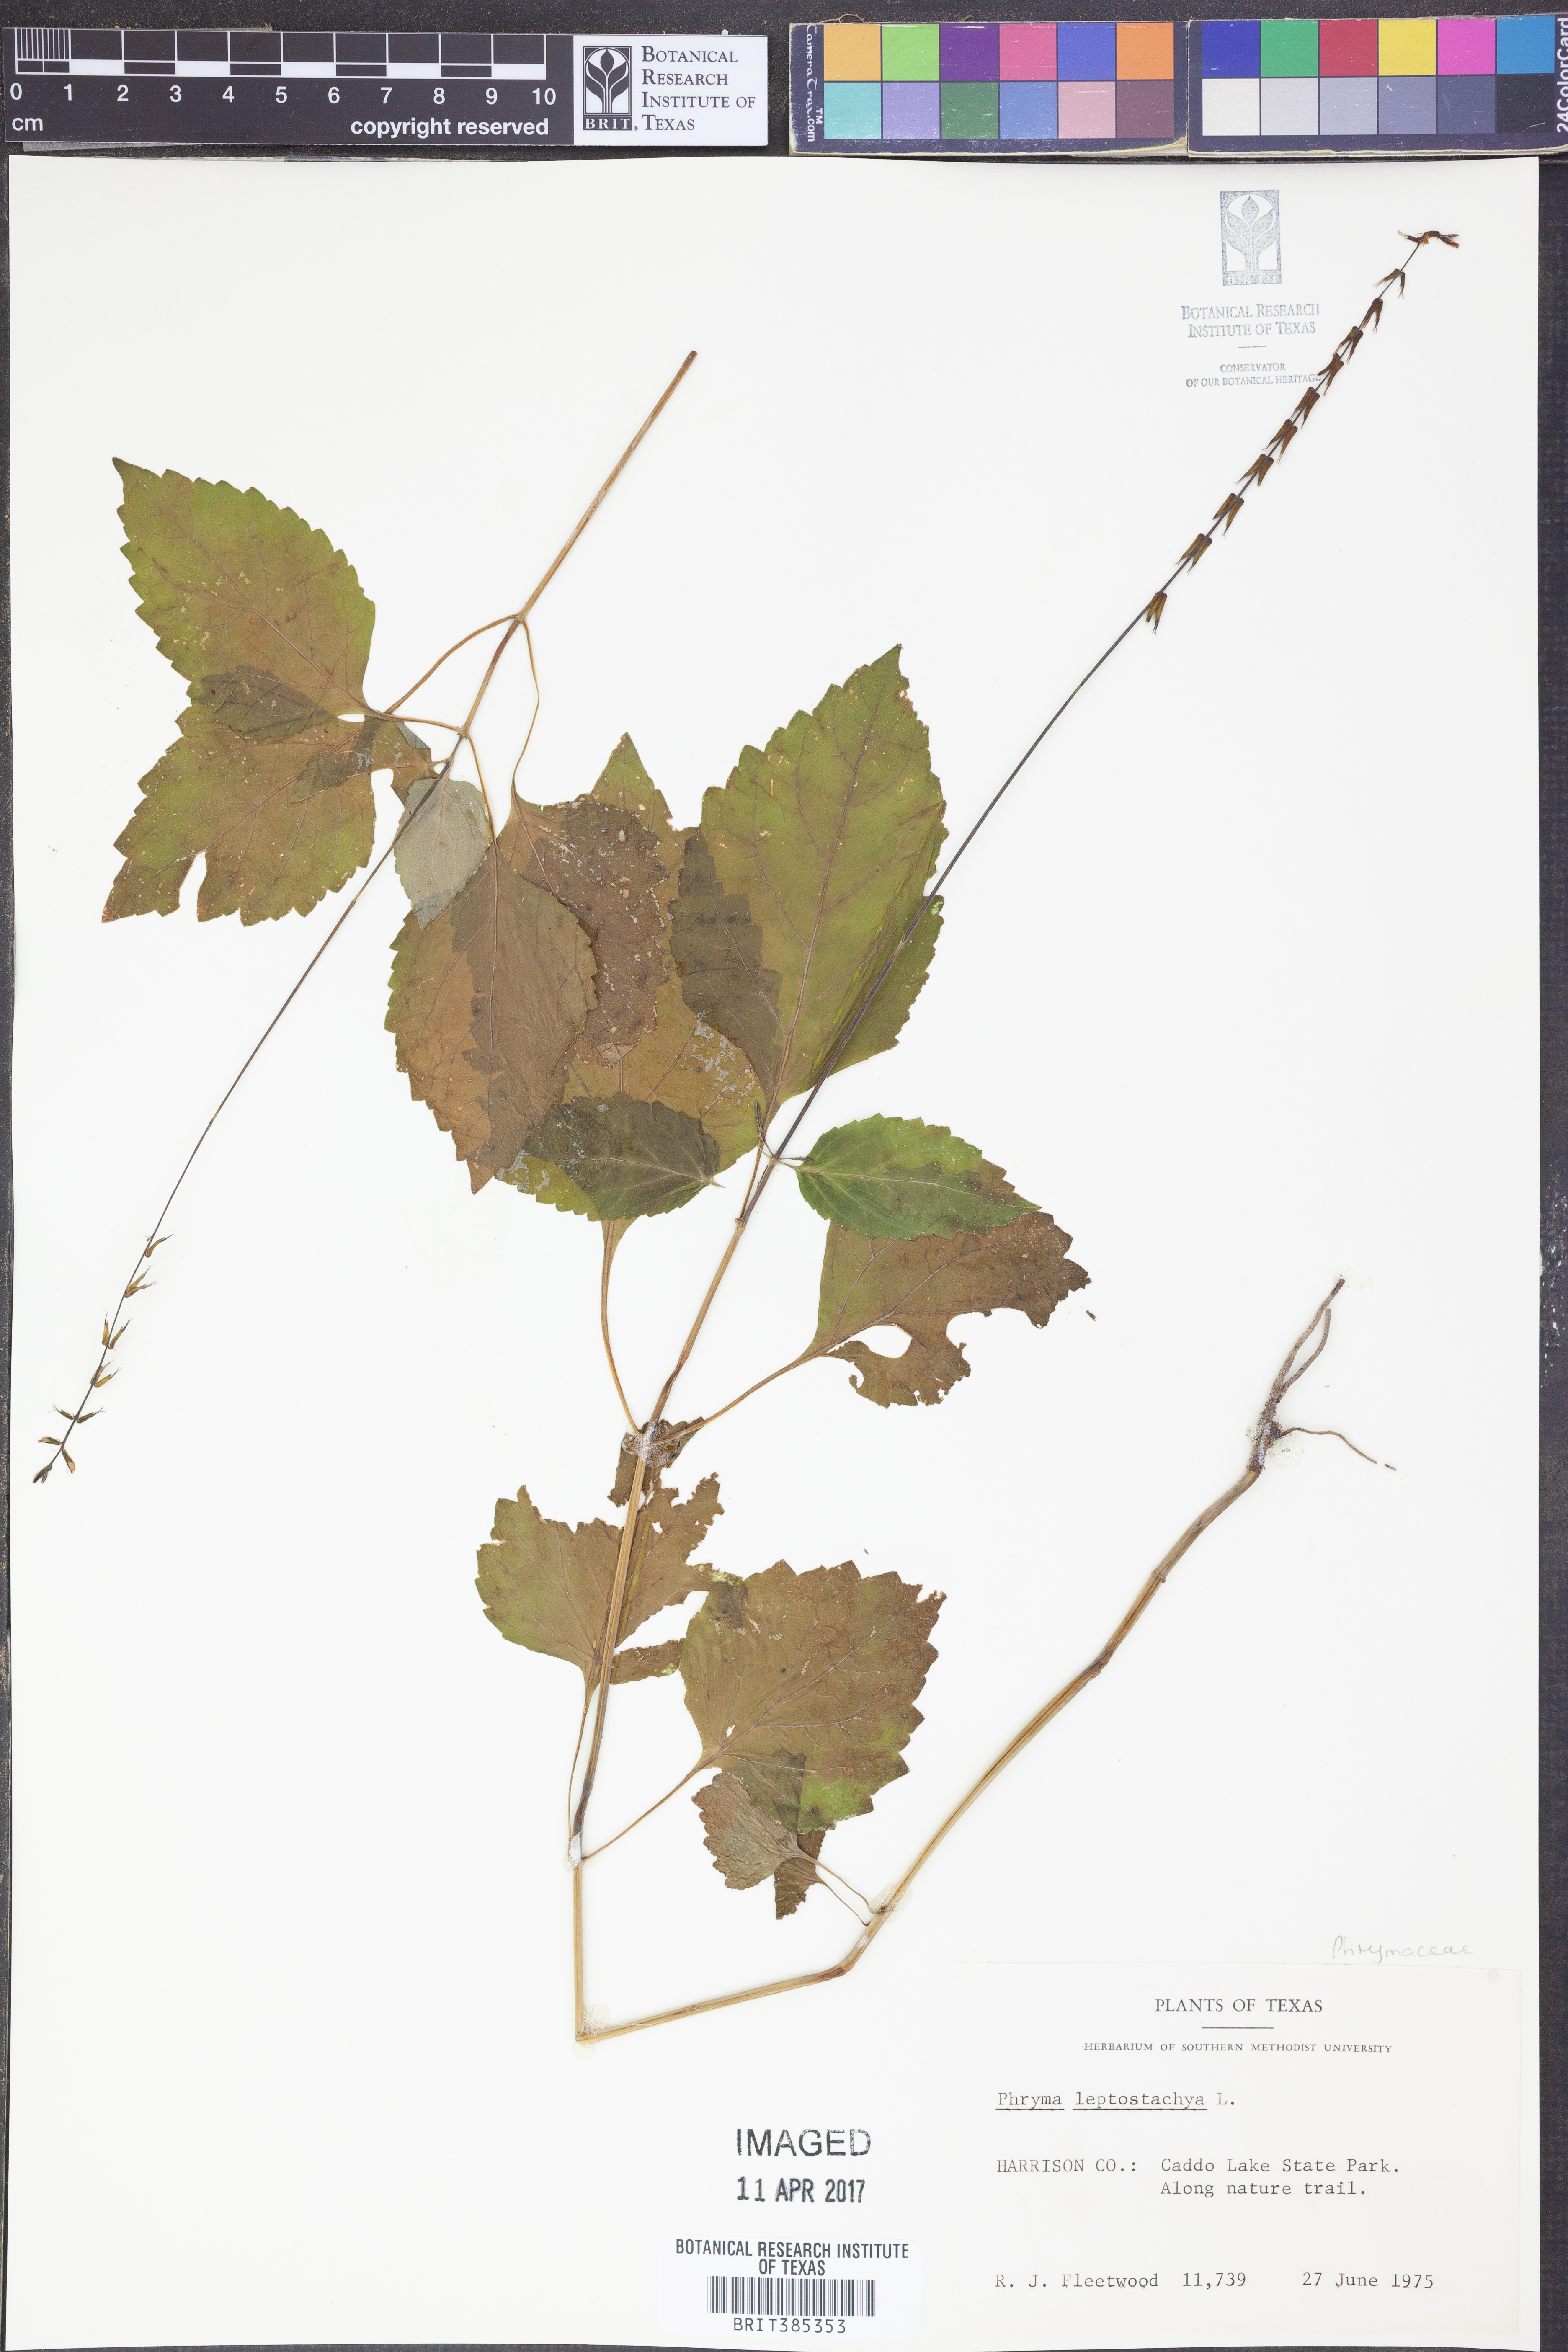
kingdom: Plantae
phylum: Tracheophyta
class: Magnoliopsida
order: Lamiales
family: Phrymaceae
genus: Phryma
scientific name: Phryma leptostachya
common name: American lopseed
